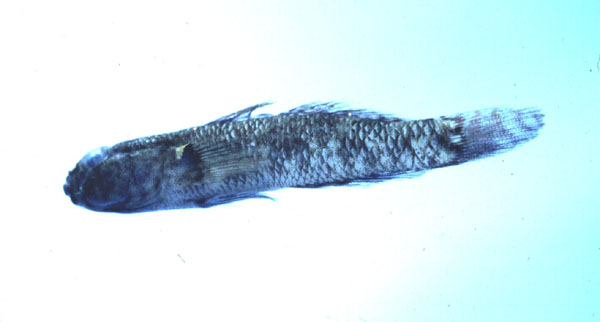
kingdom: Animalia
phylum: Chordata
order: Perciformes
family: Gobiidae
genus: Drombus
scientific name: Drombus key
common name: Key goby
